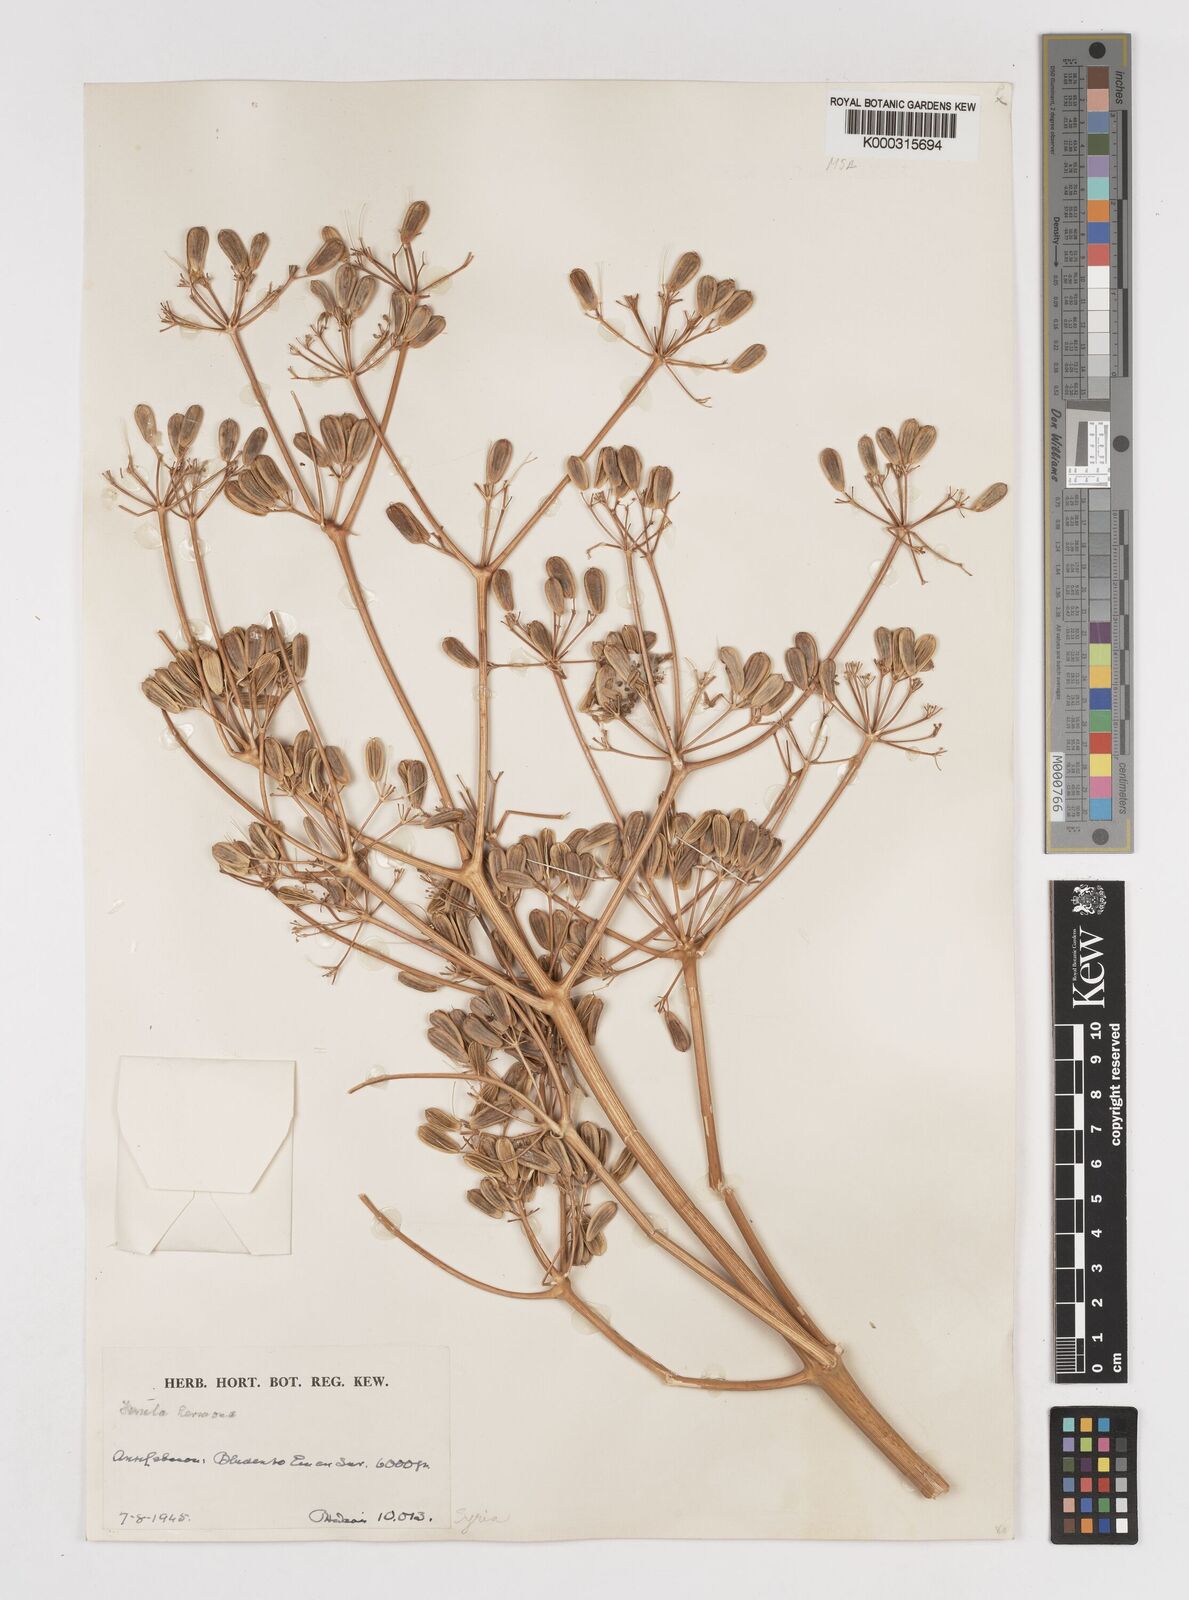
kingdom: Plantae
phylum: Tracheophyta
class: Magnoliopsida
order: Apiales
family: Apiaceae
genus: Ferula
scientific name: Ferula hermonis
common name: Hermon giant fennel
